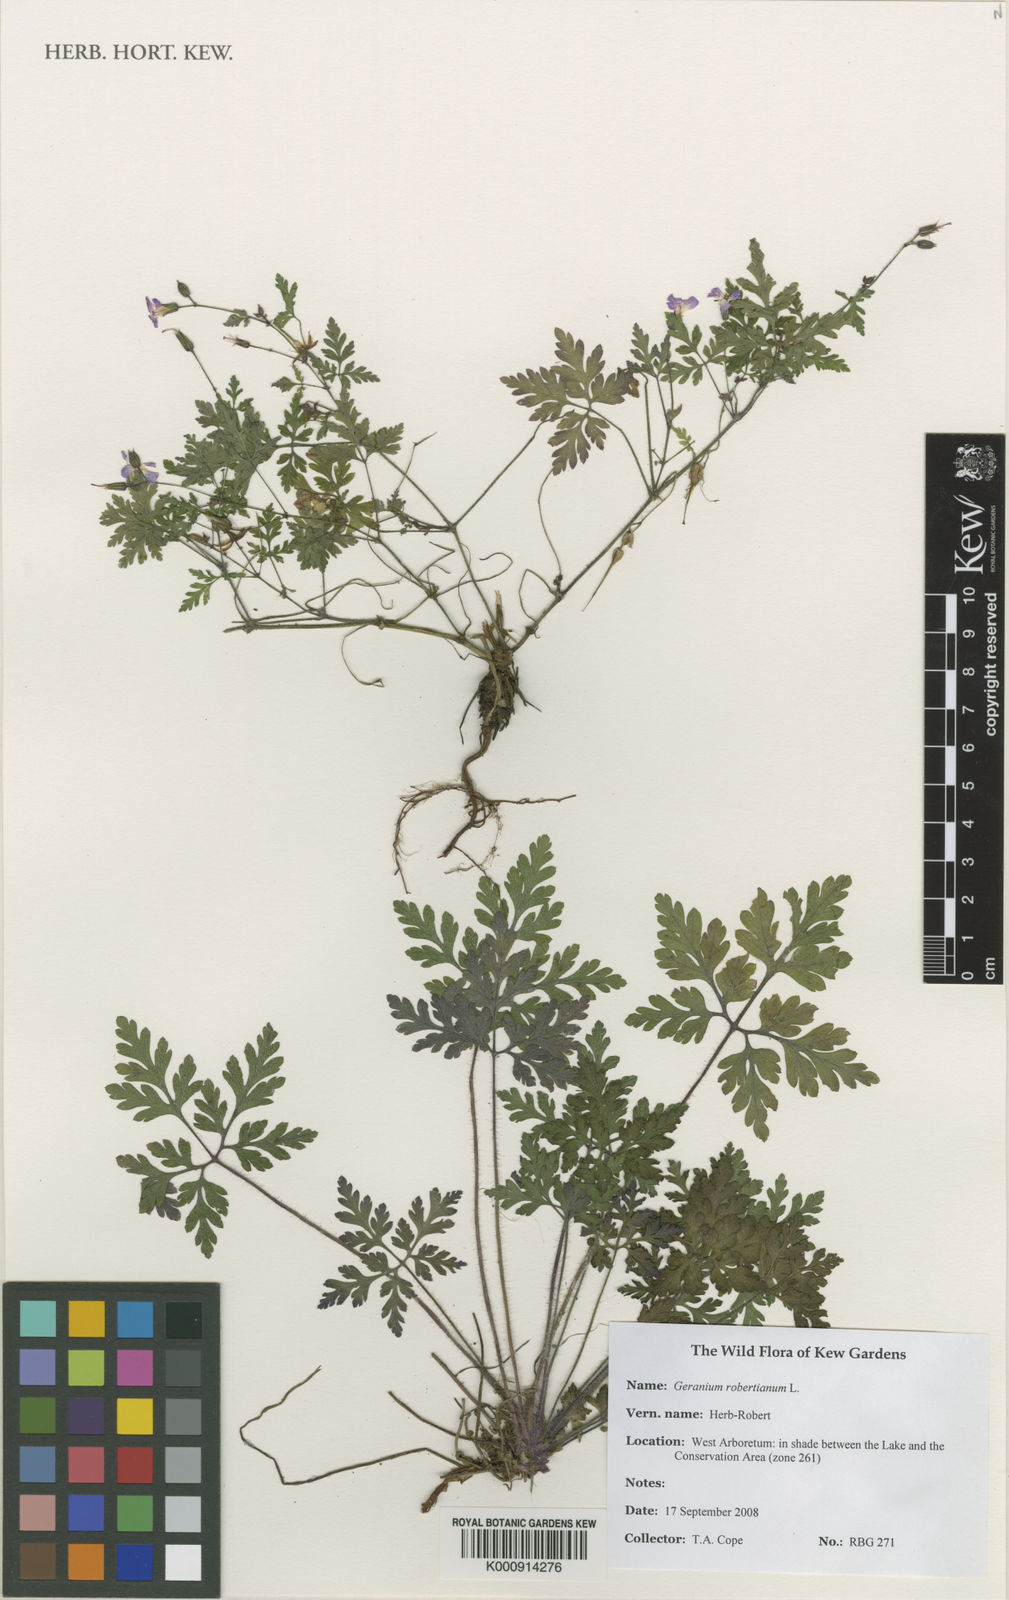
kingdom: Plantae
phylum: Tracheophyta
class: Magnoliopsida
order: Geraniales
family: Geraniaceae
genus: Geranium
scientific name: Geranium robertianum
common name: Herb-robert
